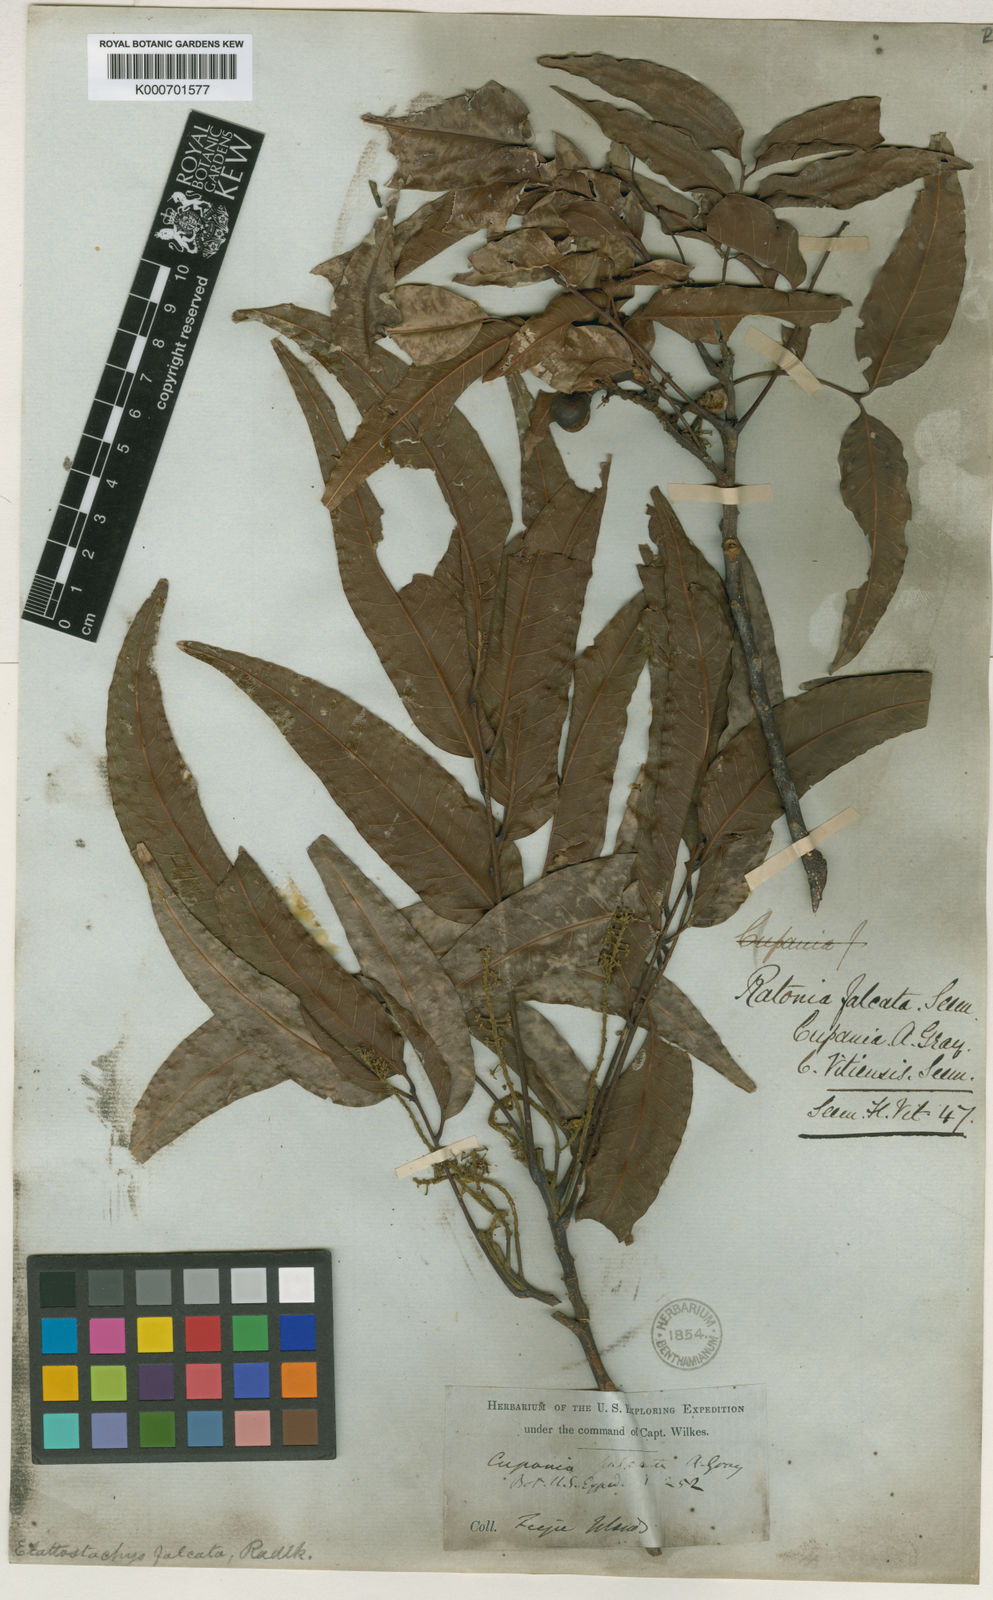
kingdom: Plantae
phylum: Tracheophyta
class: Magnoliopsida
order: Sapindales
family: Sapindaceae
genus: Elattostachys
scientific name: Elattostachys apetala
